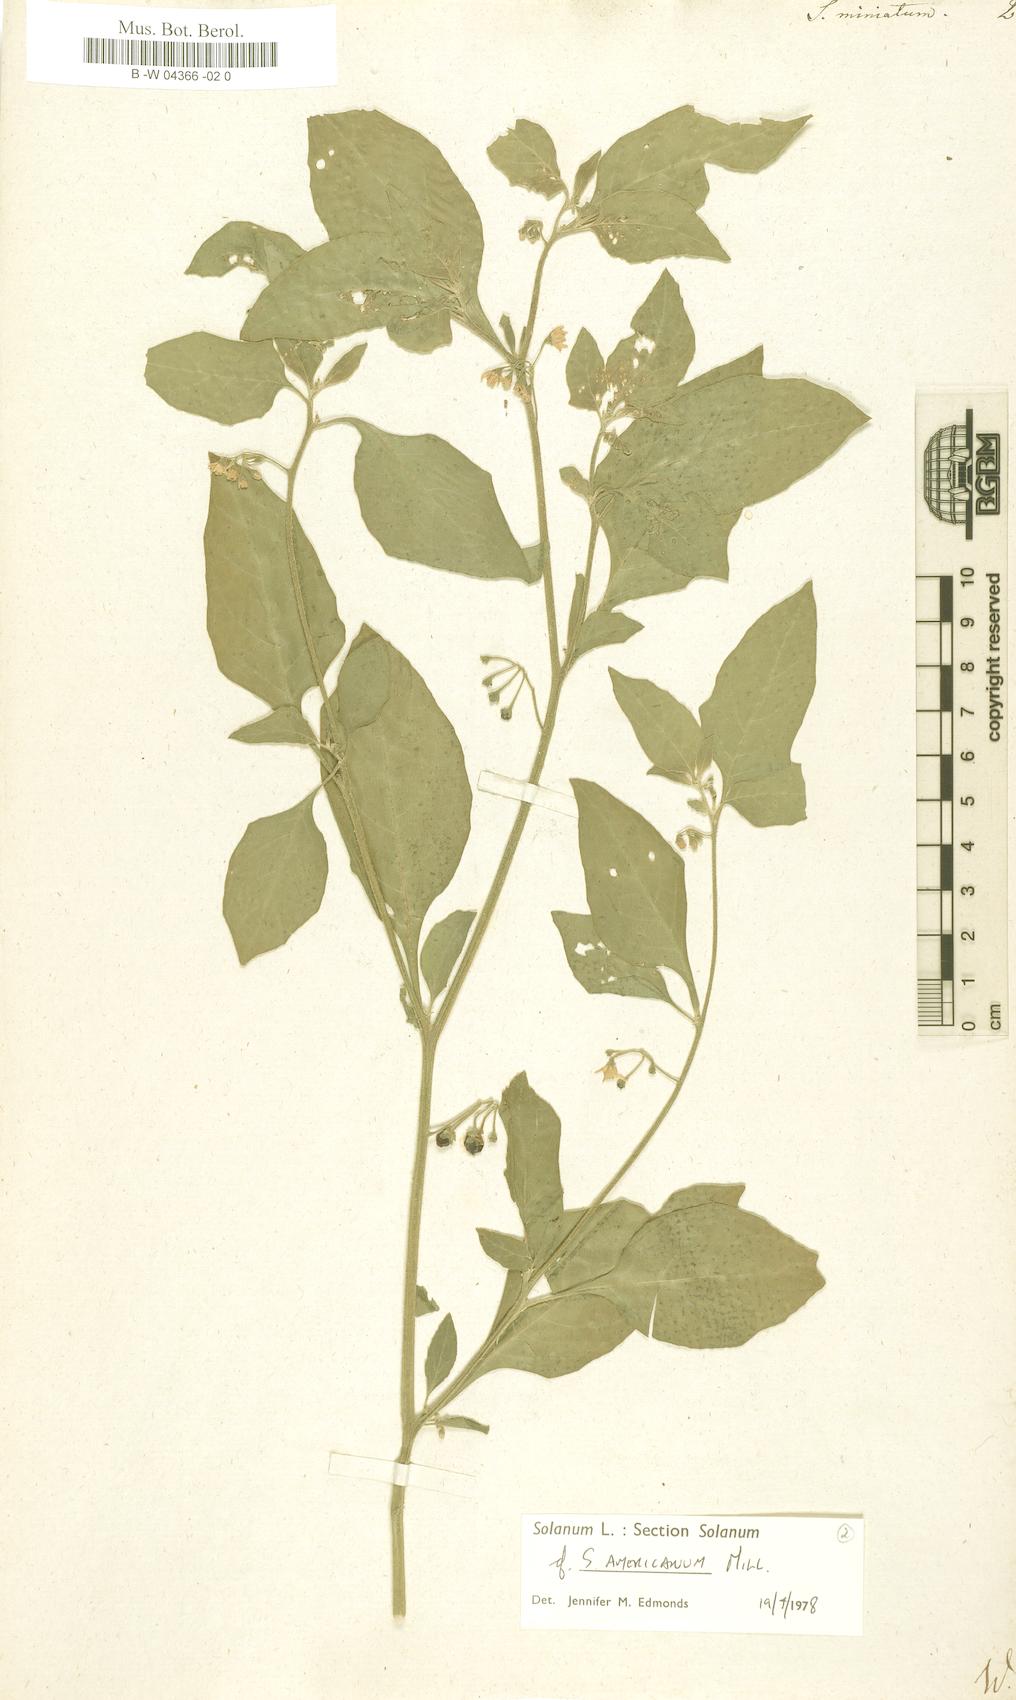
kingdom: Plantae
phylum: Tracheophyta
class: Magnoliopsida
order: Solanales
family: Solanaceae
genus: Solanum
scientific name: Solanum villosum
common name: Red nightshade
